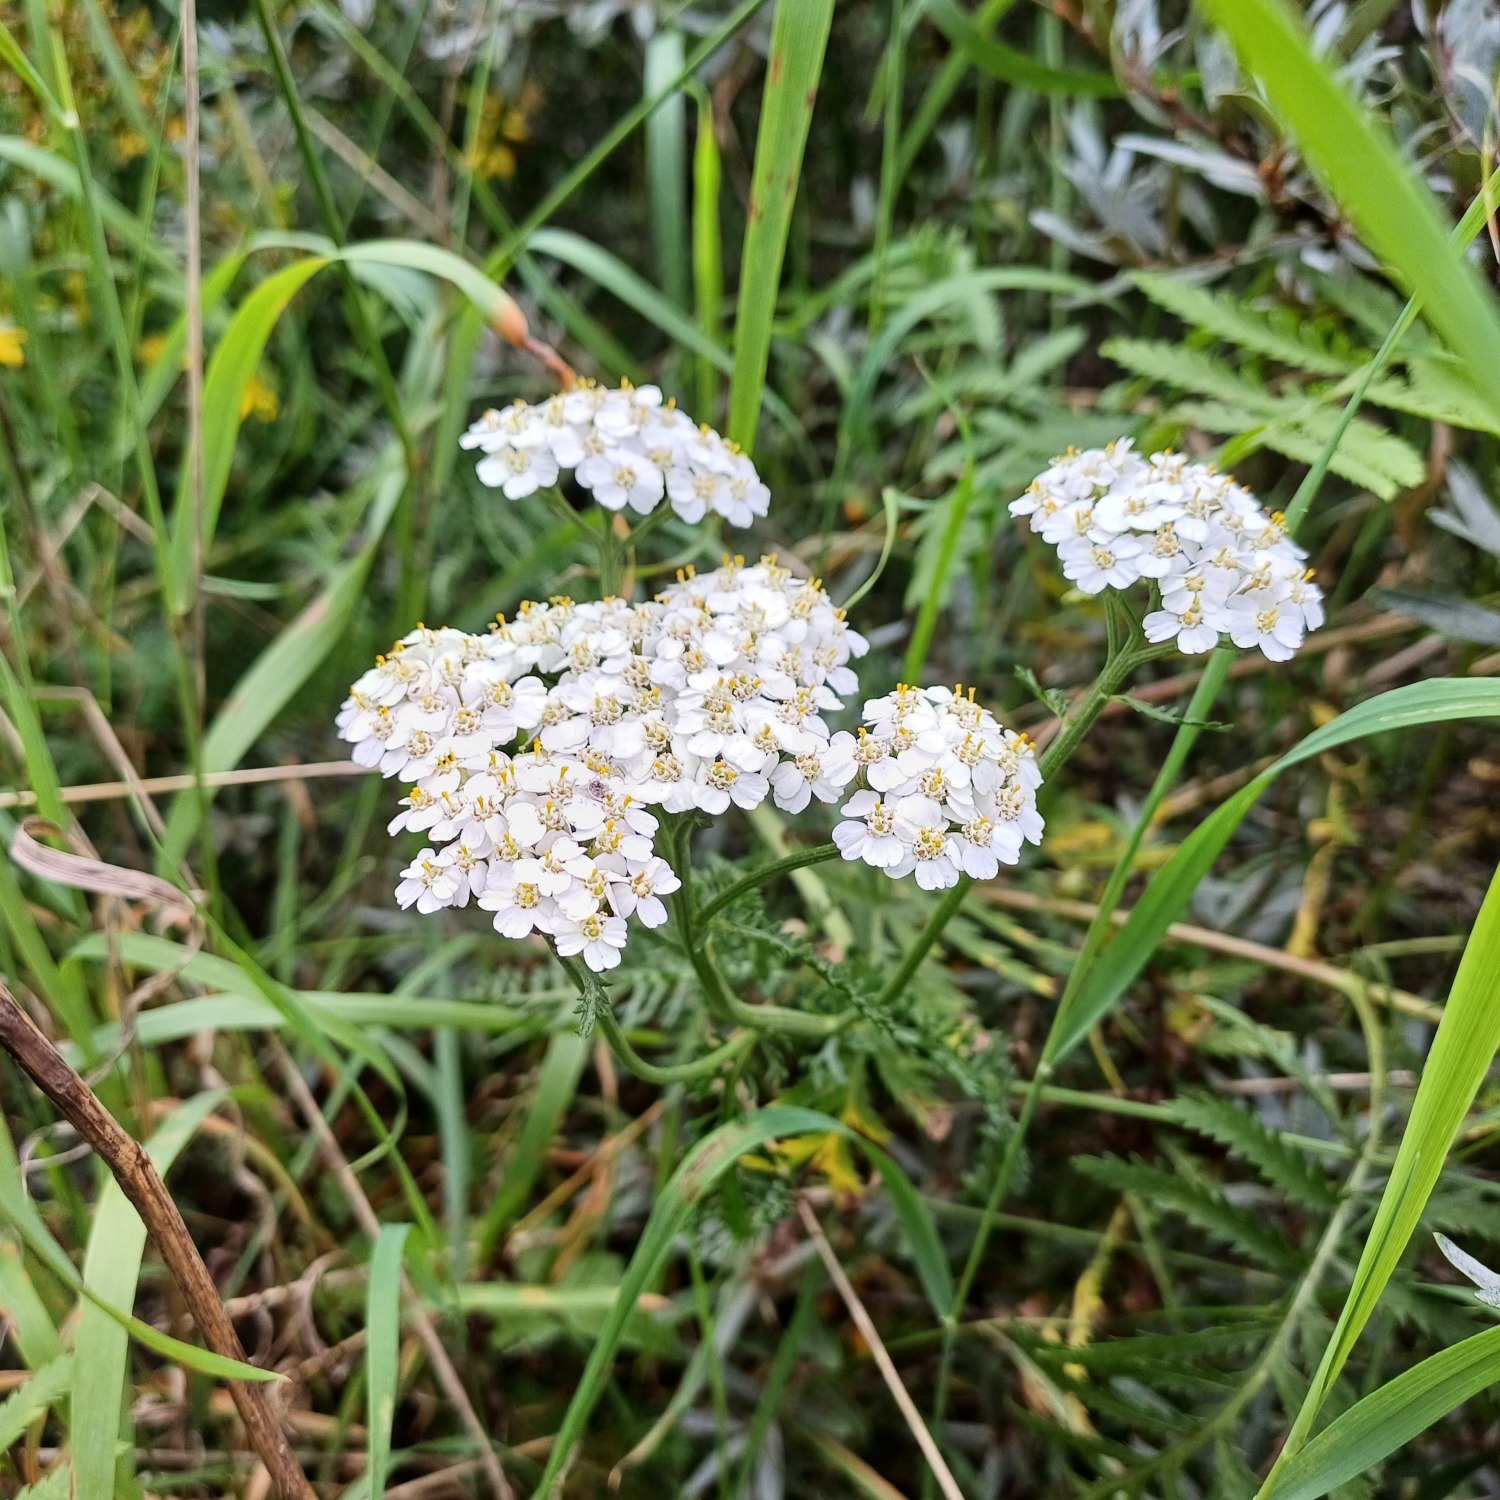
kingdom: Plantae
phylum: Tracheophyta
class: Magnoliopsida
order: Asterales
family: Asteraceae
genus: Achillea
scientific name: Achillea millefolium
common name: Almindelig røllike
